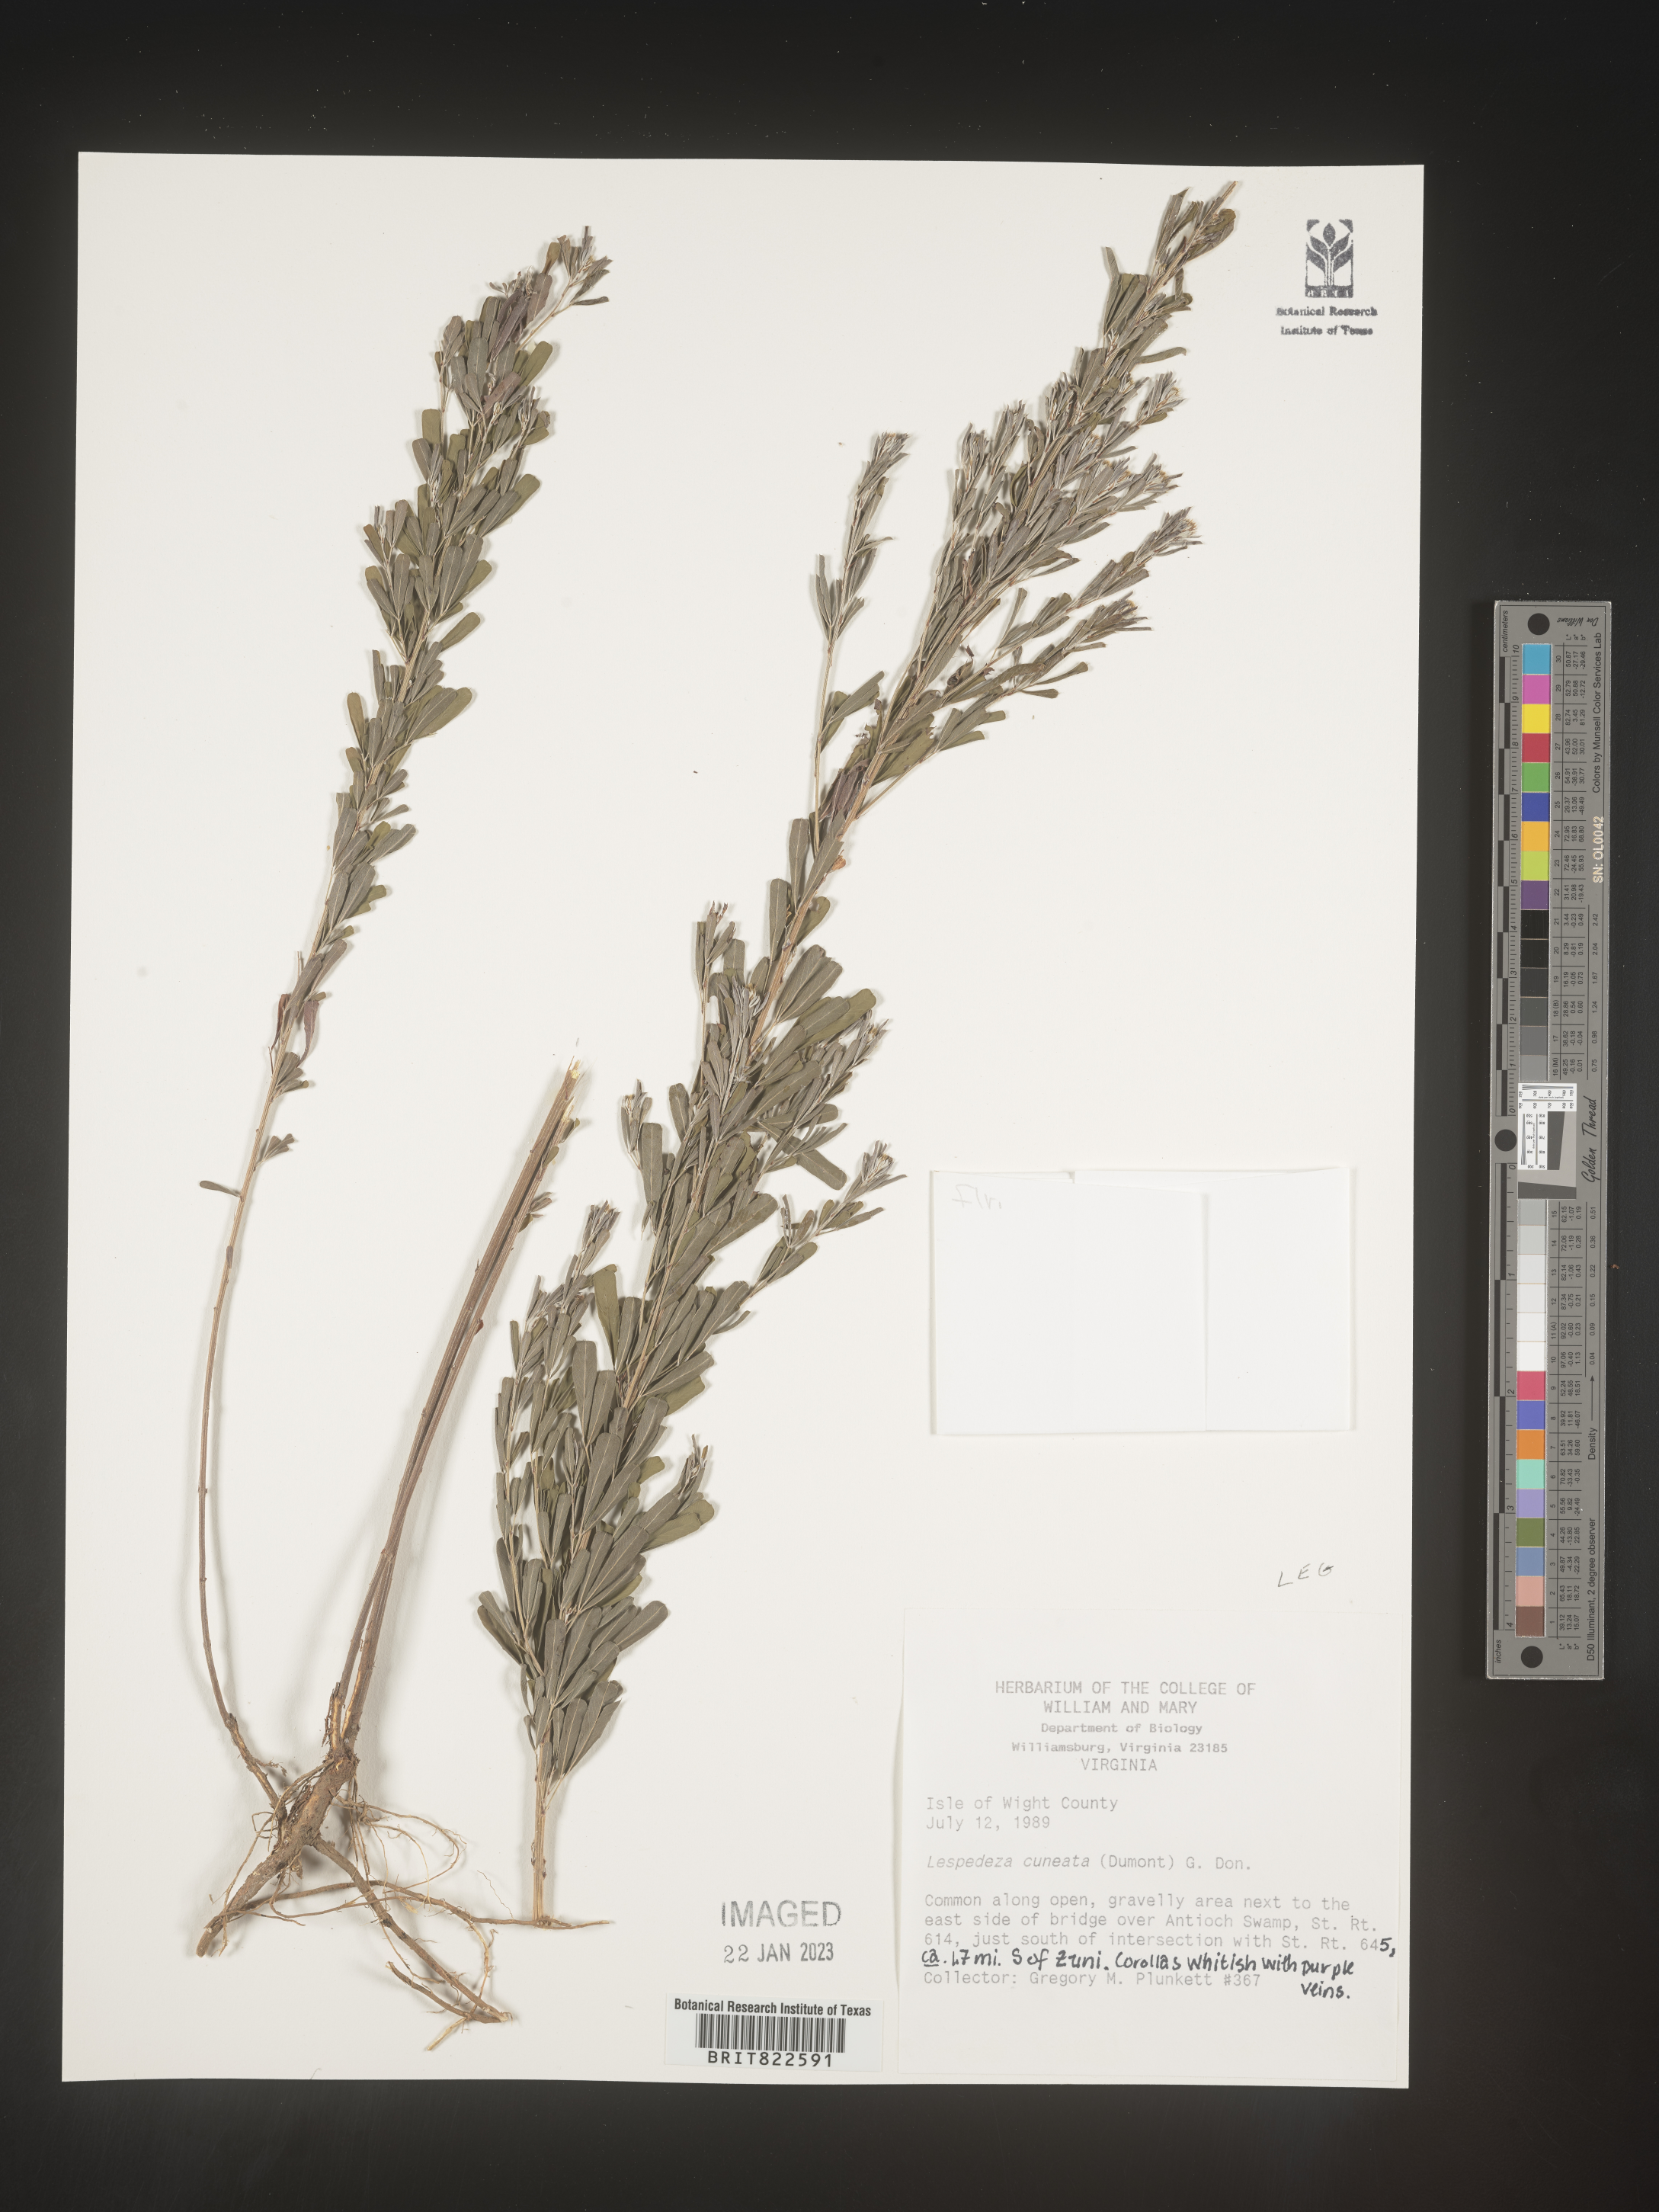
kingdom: Plantae
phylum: Tracheophyta
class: Magnoliopsida
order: Fabales
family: Fabaceae
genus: Lespedeza
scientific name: Lespedeza cuneata
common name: Chinese bush-clover
